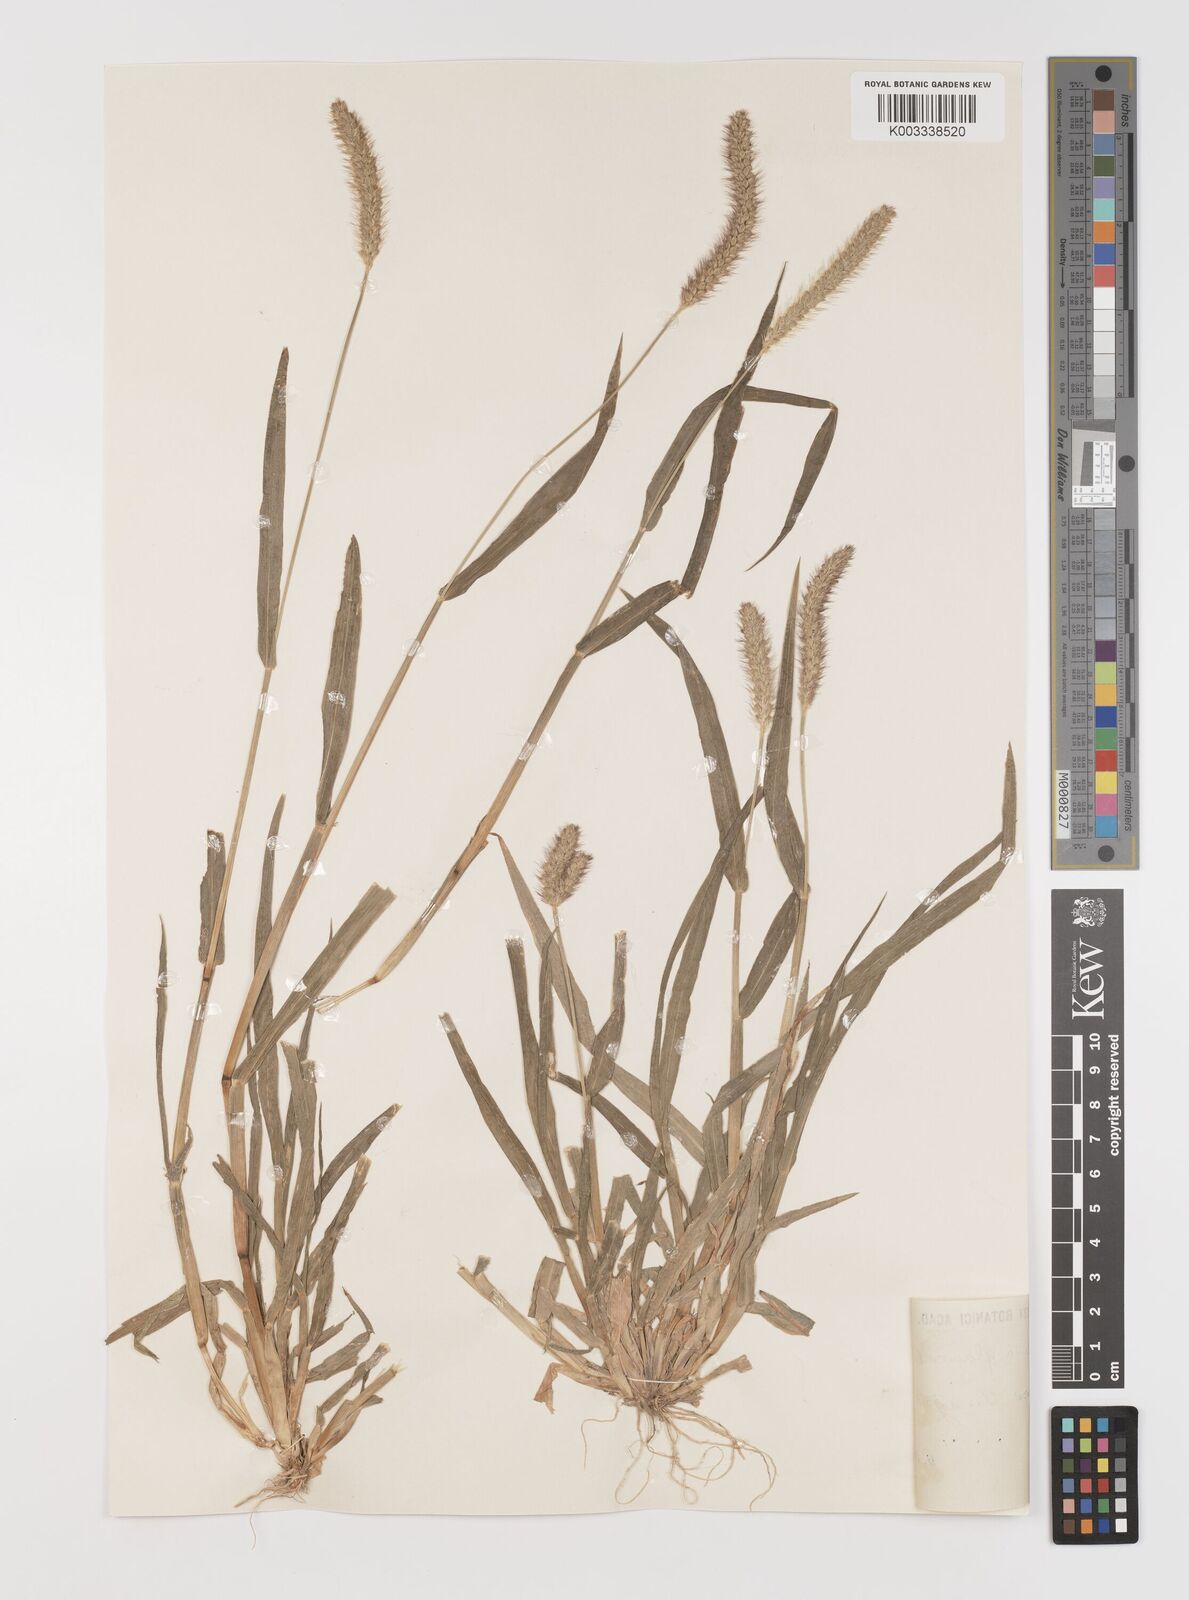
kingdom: Plantae
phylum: Tracheophyta
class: Liliopsida
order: Poales
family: Poaceae
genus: Cenchrus
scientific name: Cenchrus americanus
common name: Pearl millet
